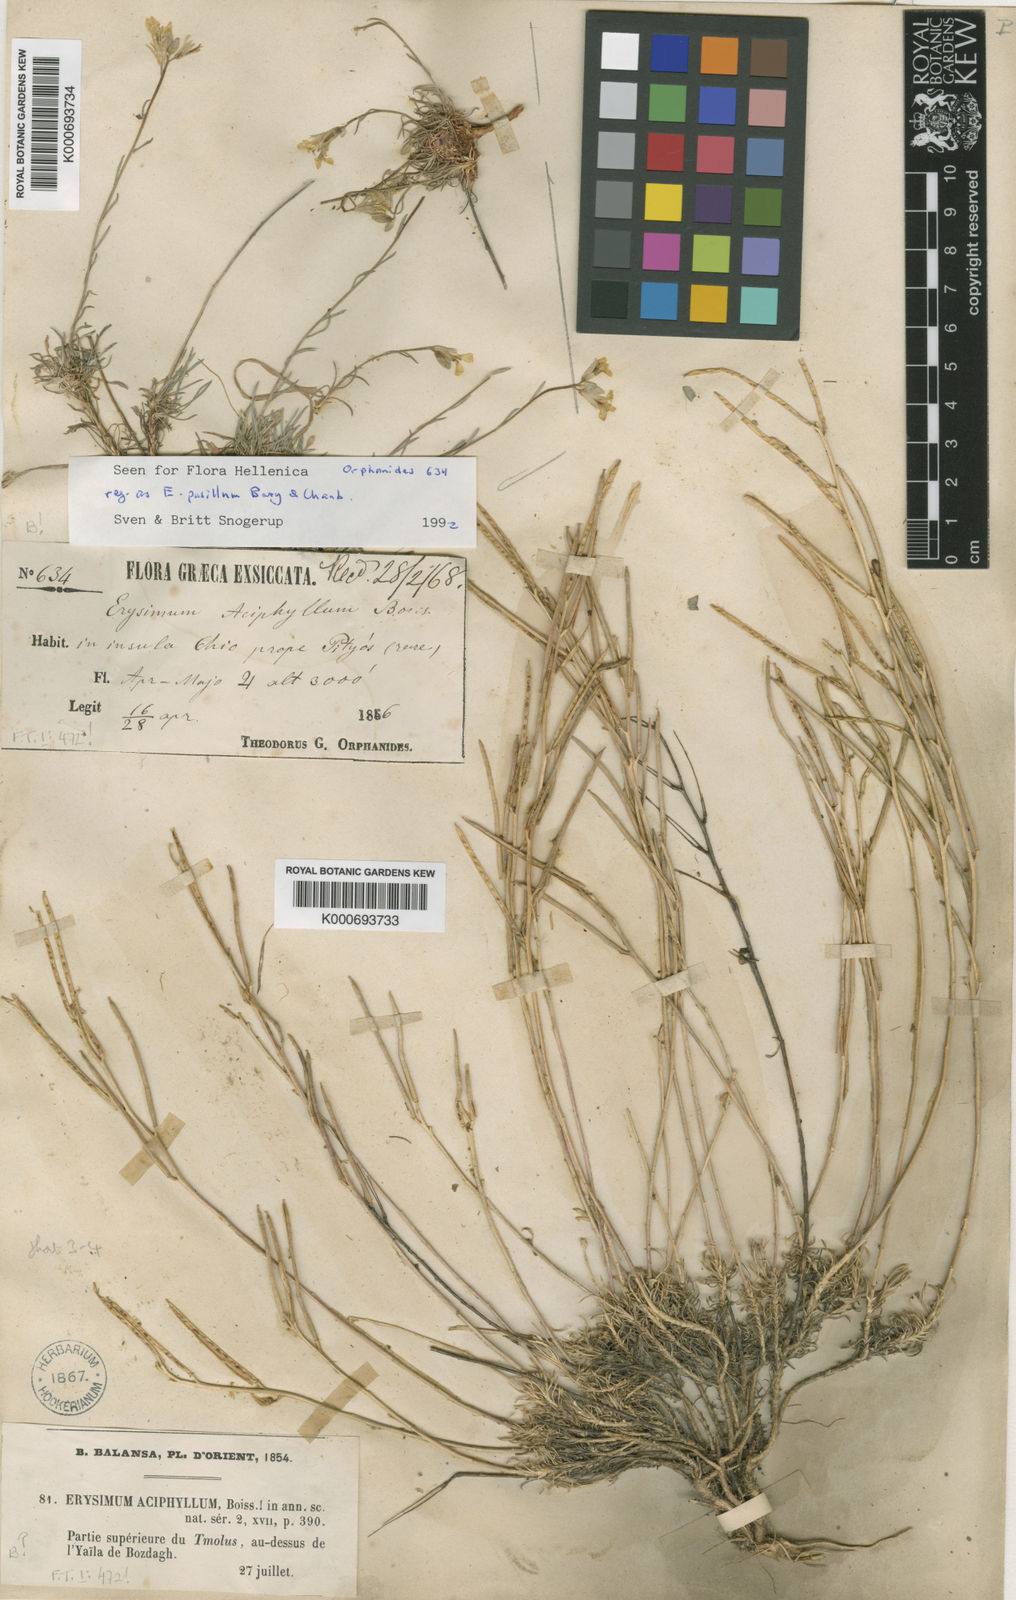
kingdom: Plantae
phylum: Tracheophyta
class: Magnoliopsida
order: Brassicales
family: Brassicaceae
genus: Stenodraba
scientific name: Stenodraba colchaguensis
